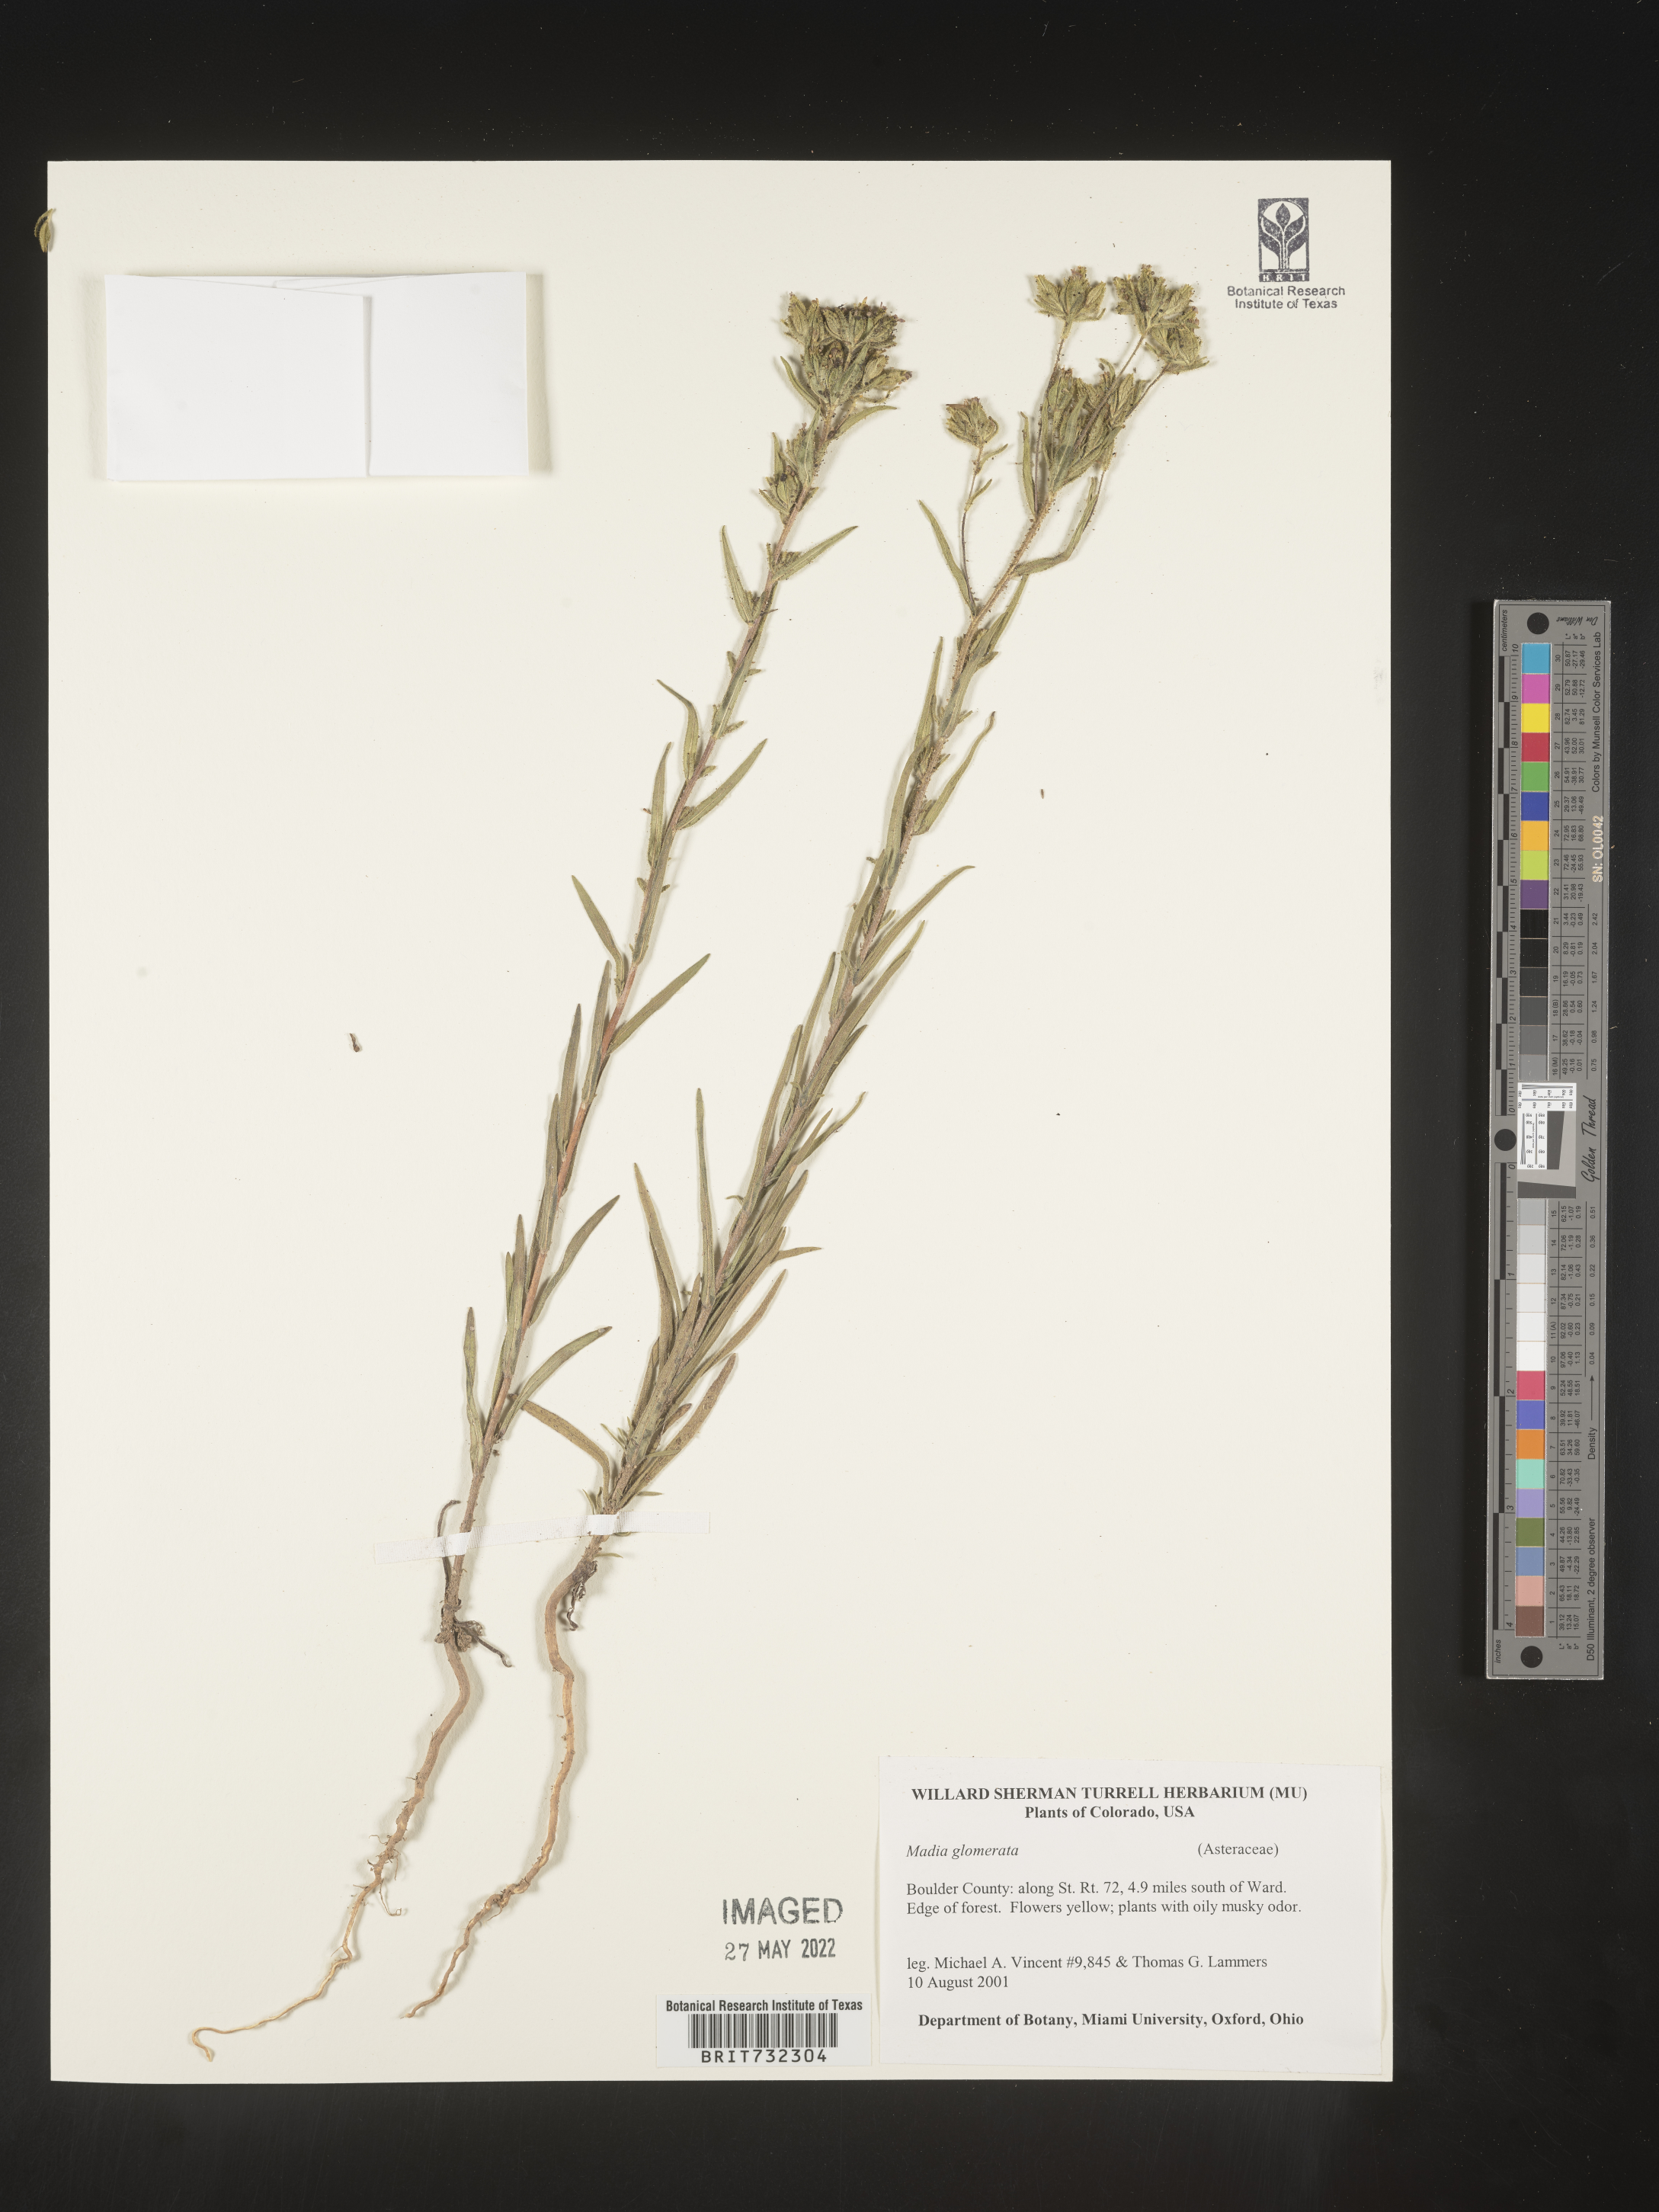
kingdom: Plantae
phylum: Tracheophyta
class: Magnoliopsida
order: Asterales
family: Asteraceae
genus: Madia
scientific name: Madia glomerata
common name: Mountain tarweed
